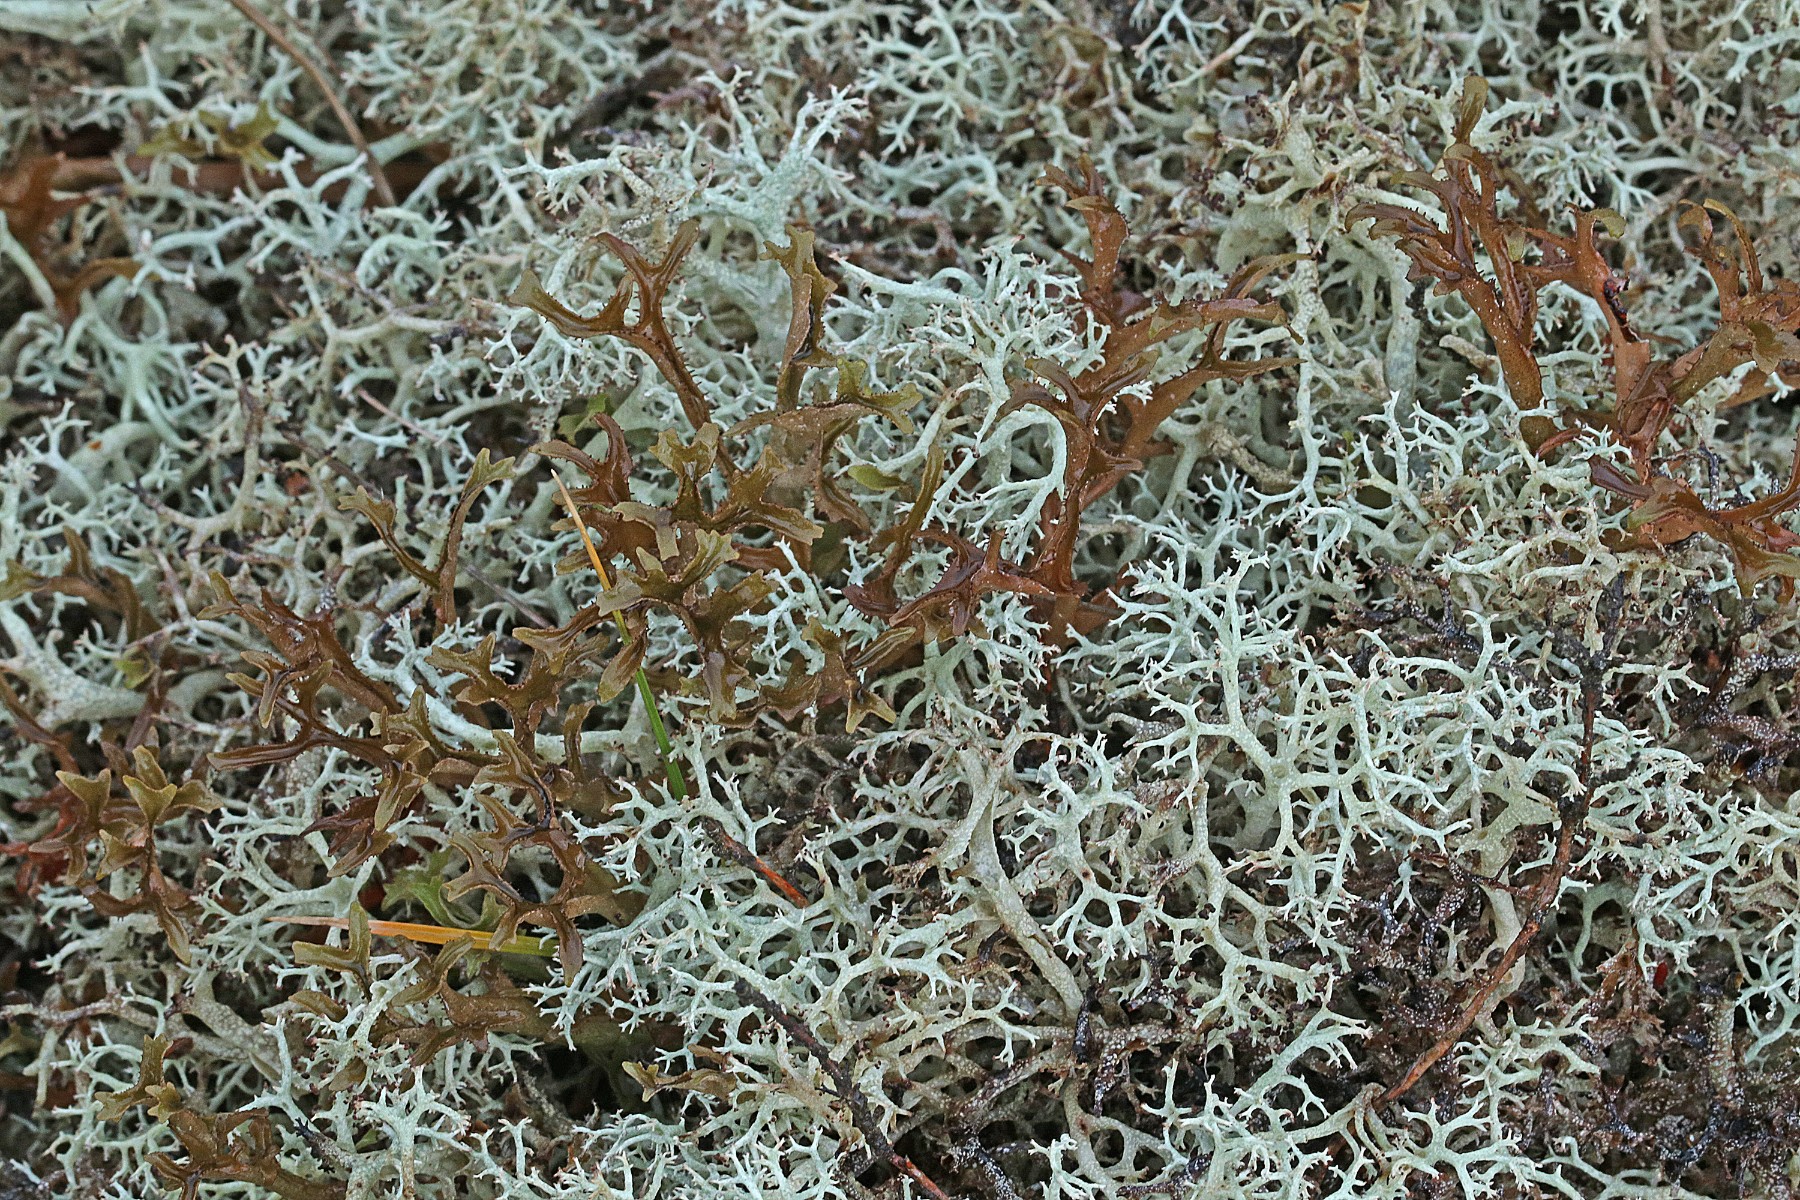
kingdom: Fungi
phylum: Ascomycota
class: Lecanoromycetes
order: Lecanorales
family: Parmeliaceae
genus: Cetraria
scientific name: Cetraria islandica
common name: islandsk kruslav
